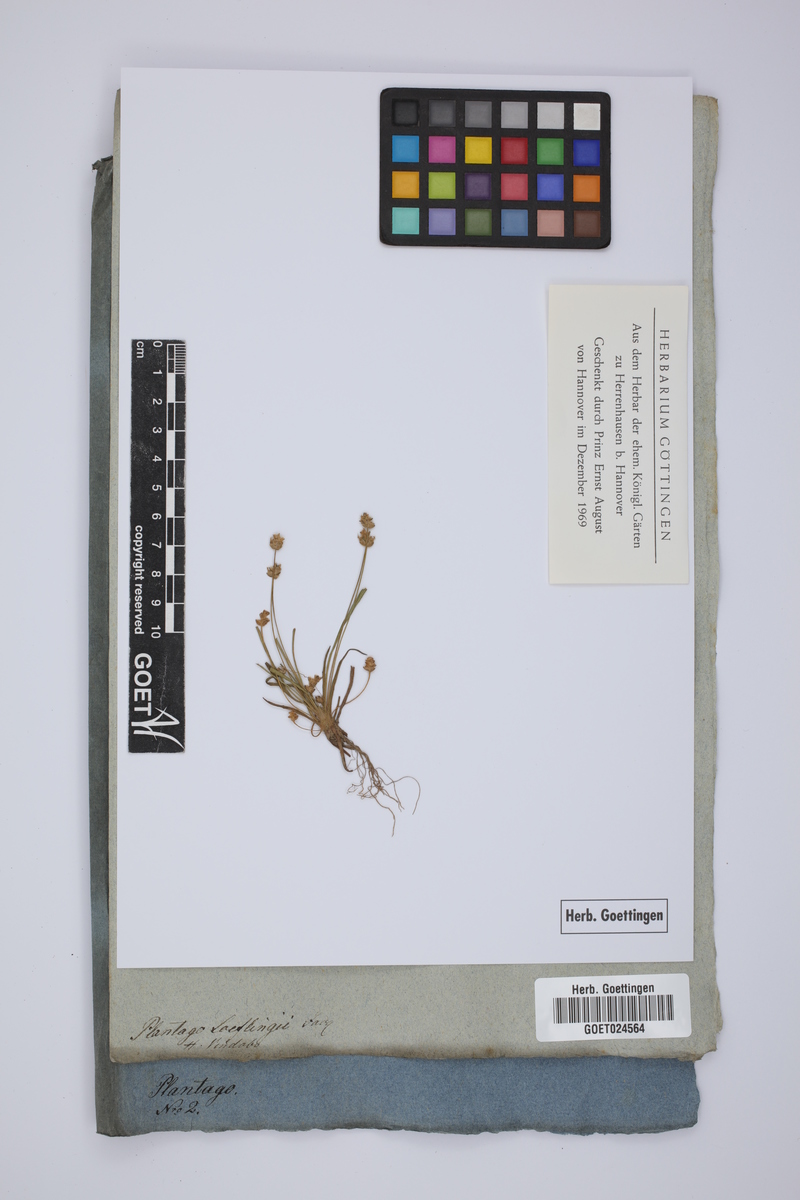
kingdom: Plantae
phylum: Tracheophyta
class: Magnoliopsida
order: Lamiales
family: Plantaginaceae
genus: Plantago
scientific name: Plantago loeflingii
